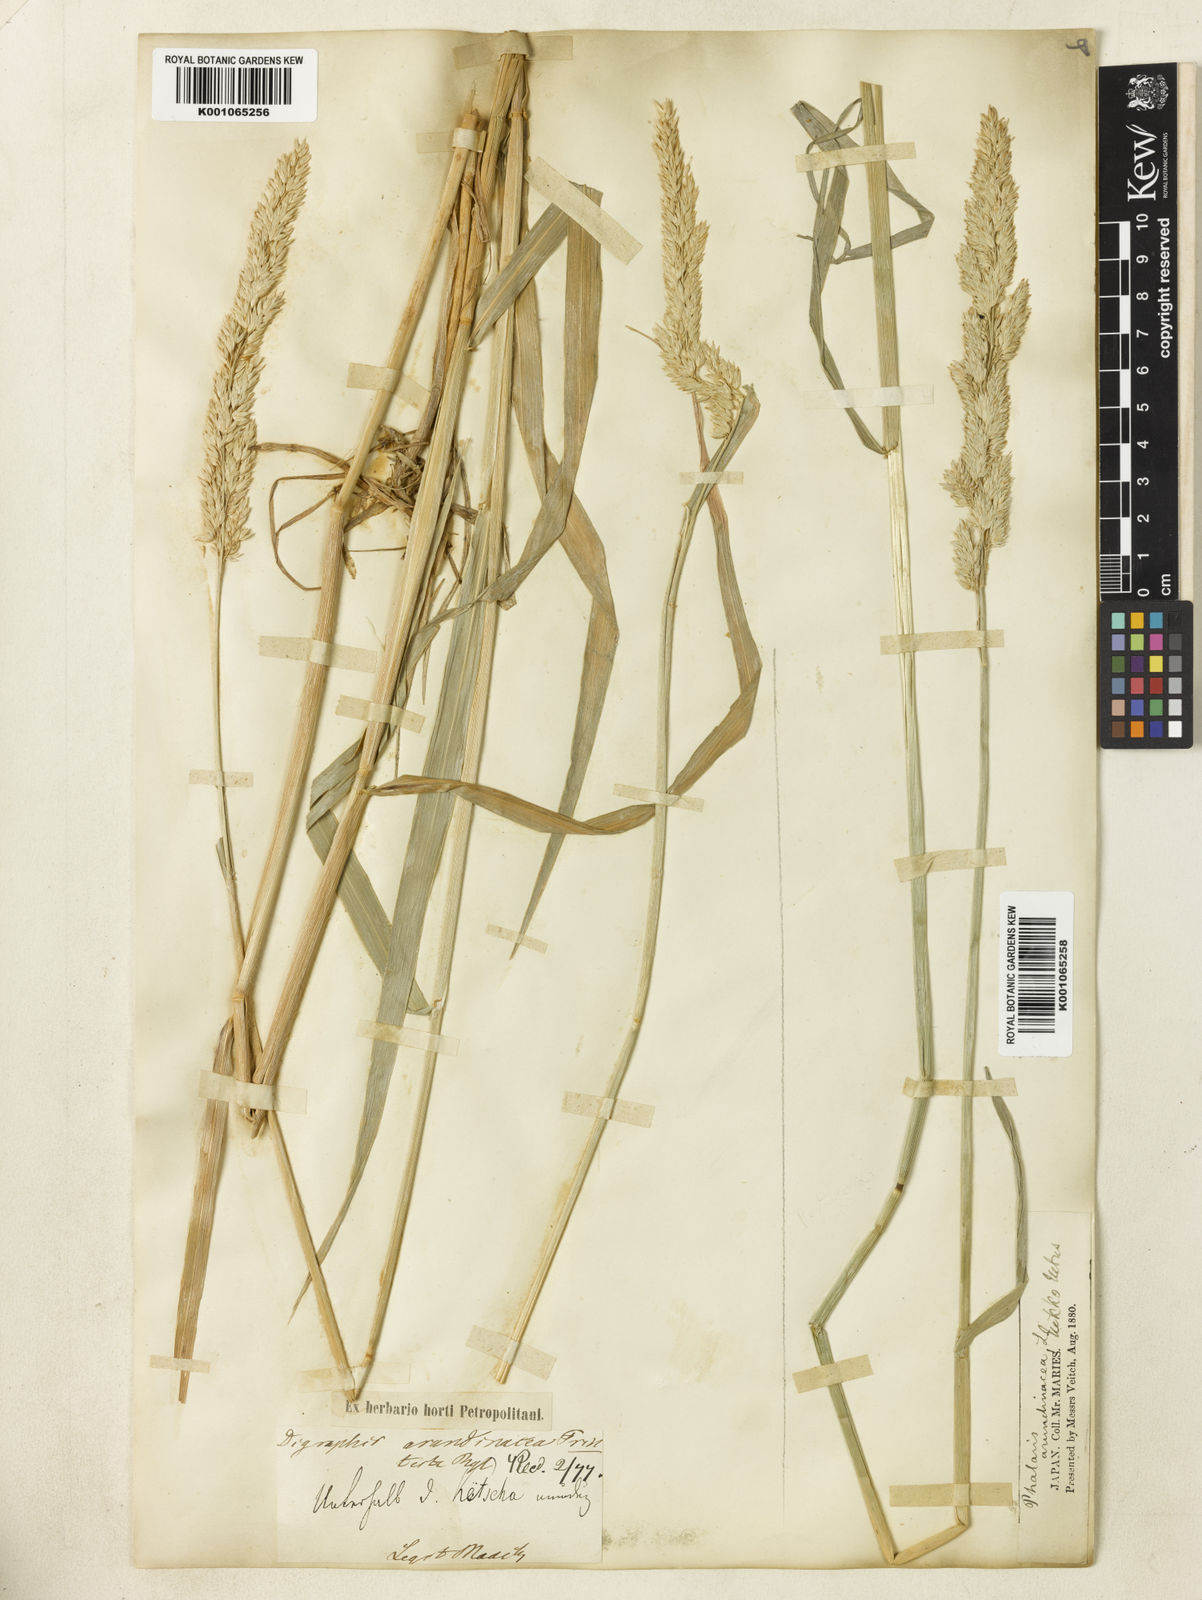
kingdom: Plantae
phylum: Tracheophyta
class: Liliopsida
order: Poales
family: Poaceae
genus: Phalaris
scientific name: Phalaris arundinacea
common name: Reed canary-grass
